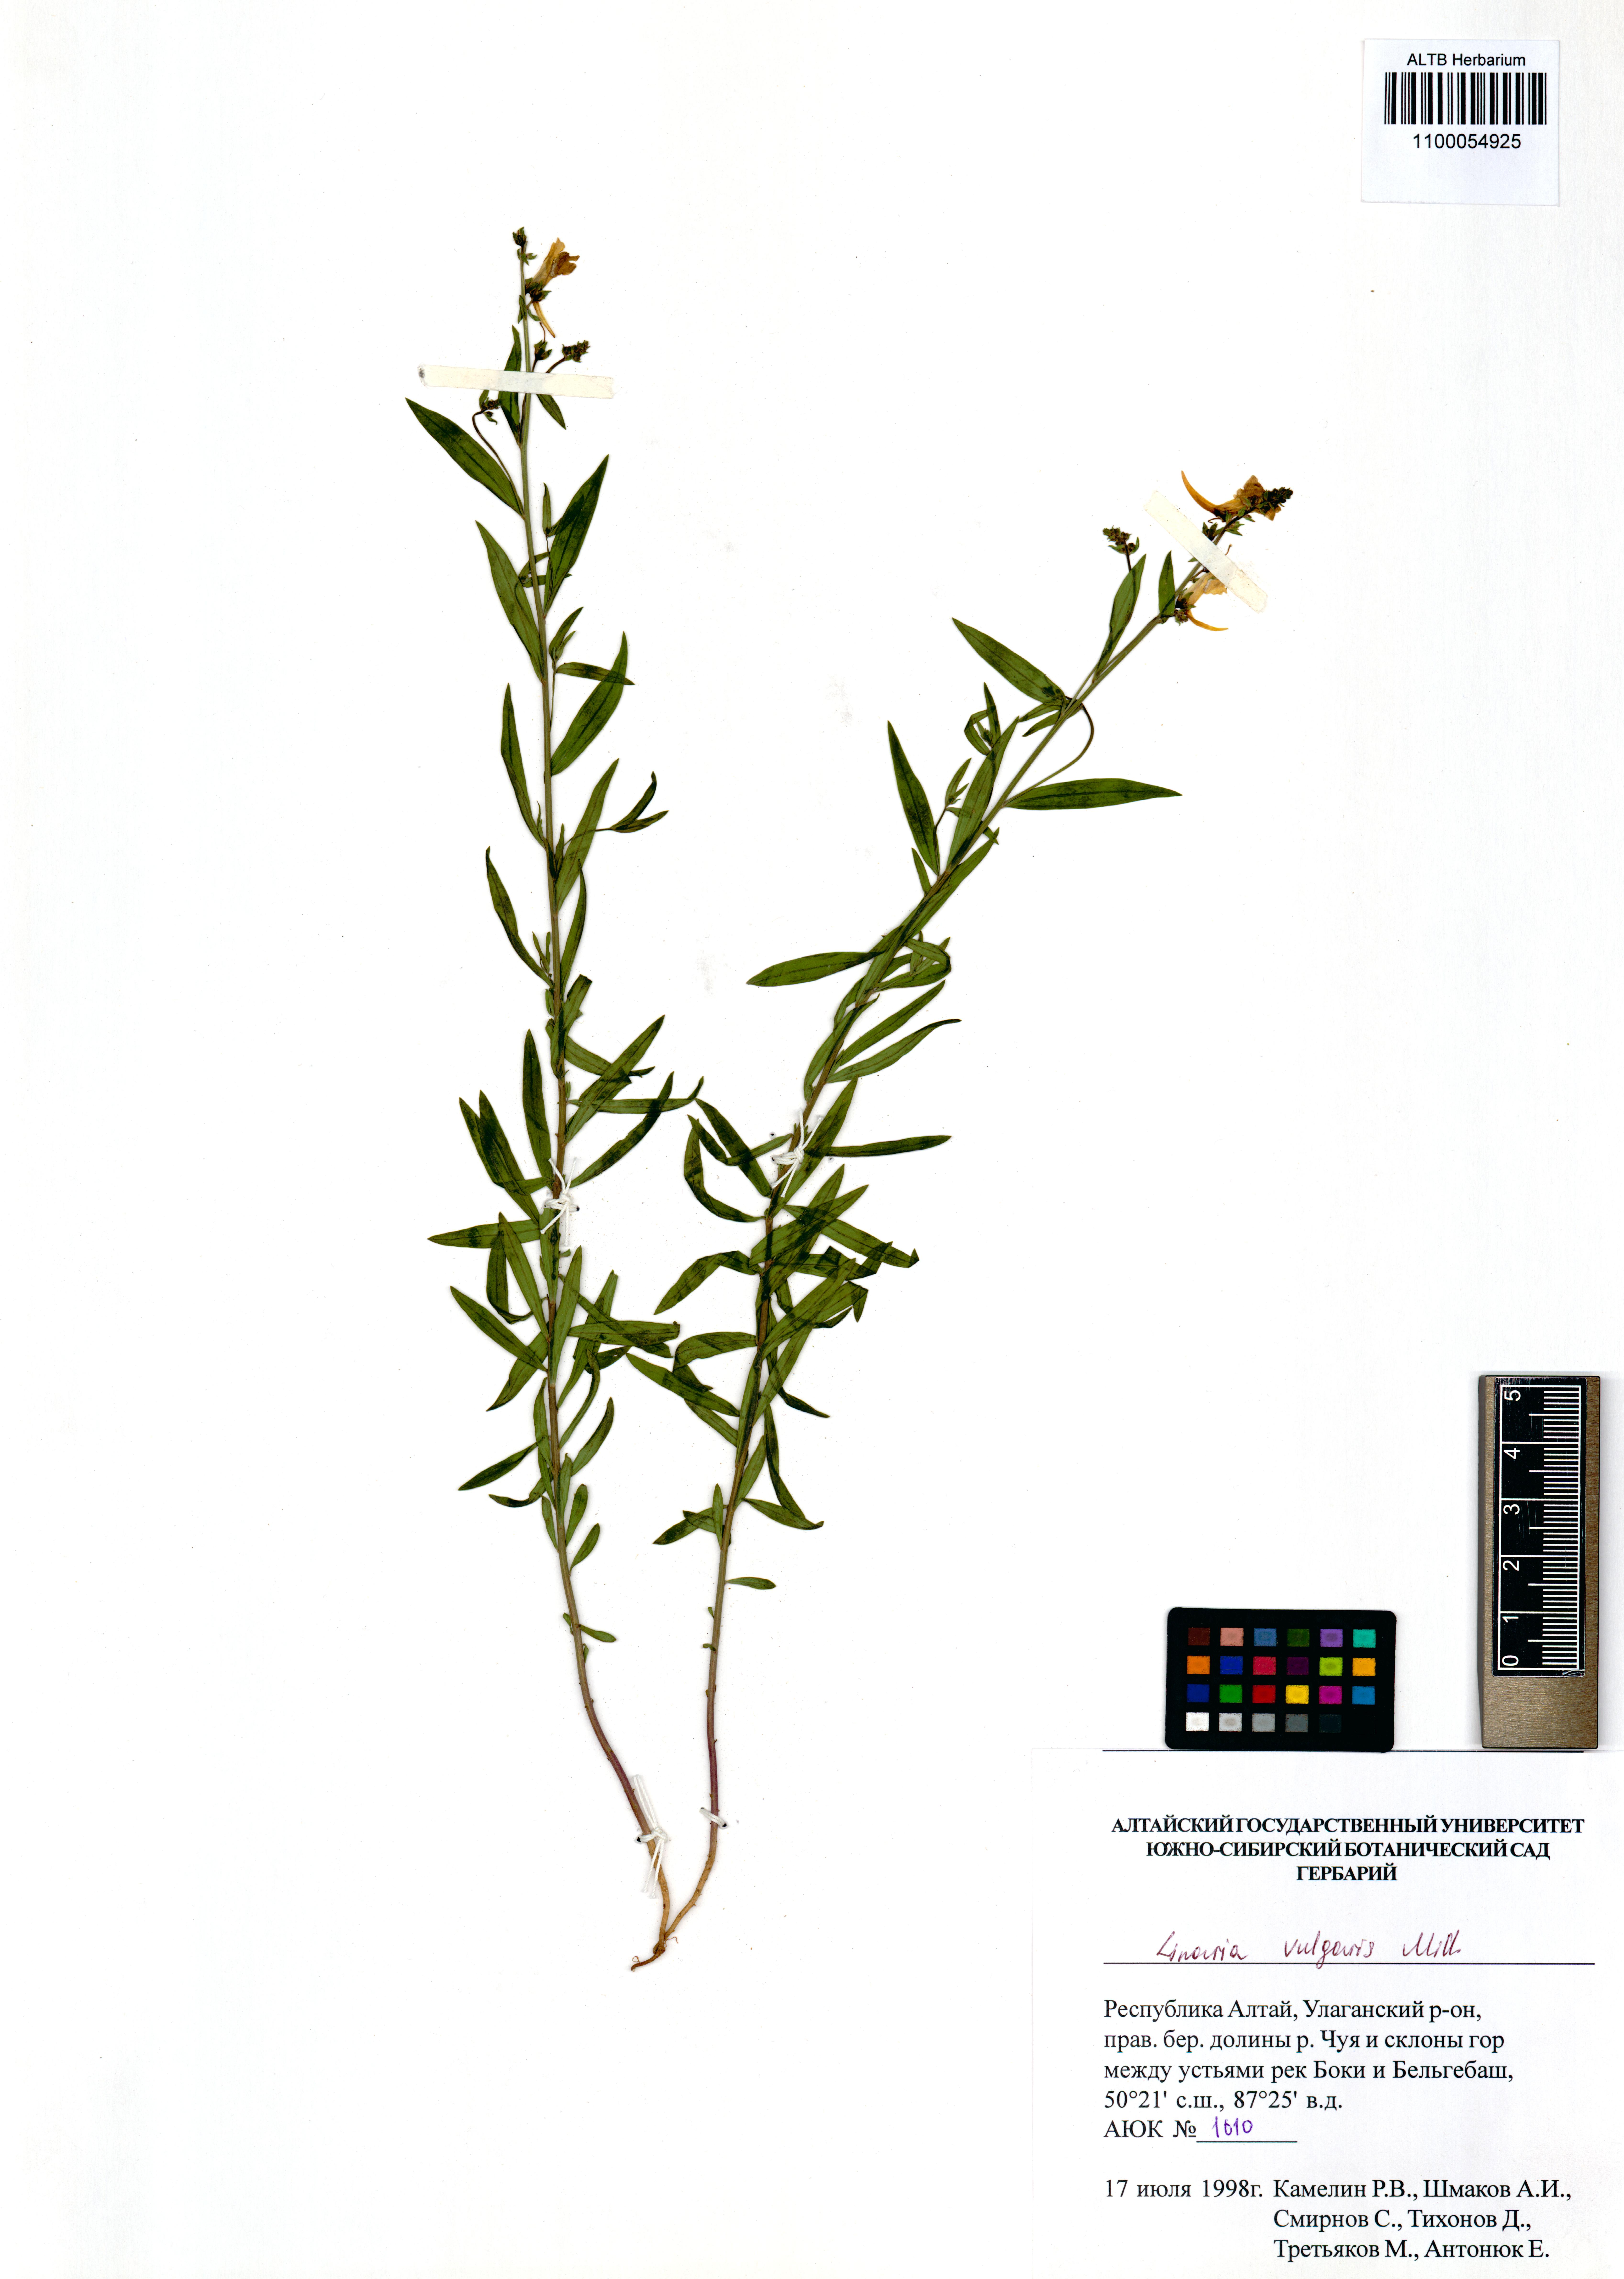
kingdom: Plantae
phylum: Tracheophyta
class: Magnoliopsida
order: Lamiales
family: Plantaginaceae
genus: Linaria
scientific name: Linaria vulgaris
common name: Butter and eggs
